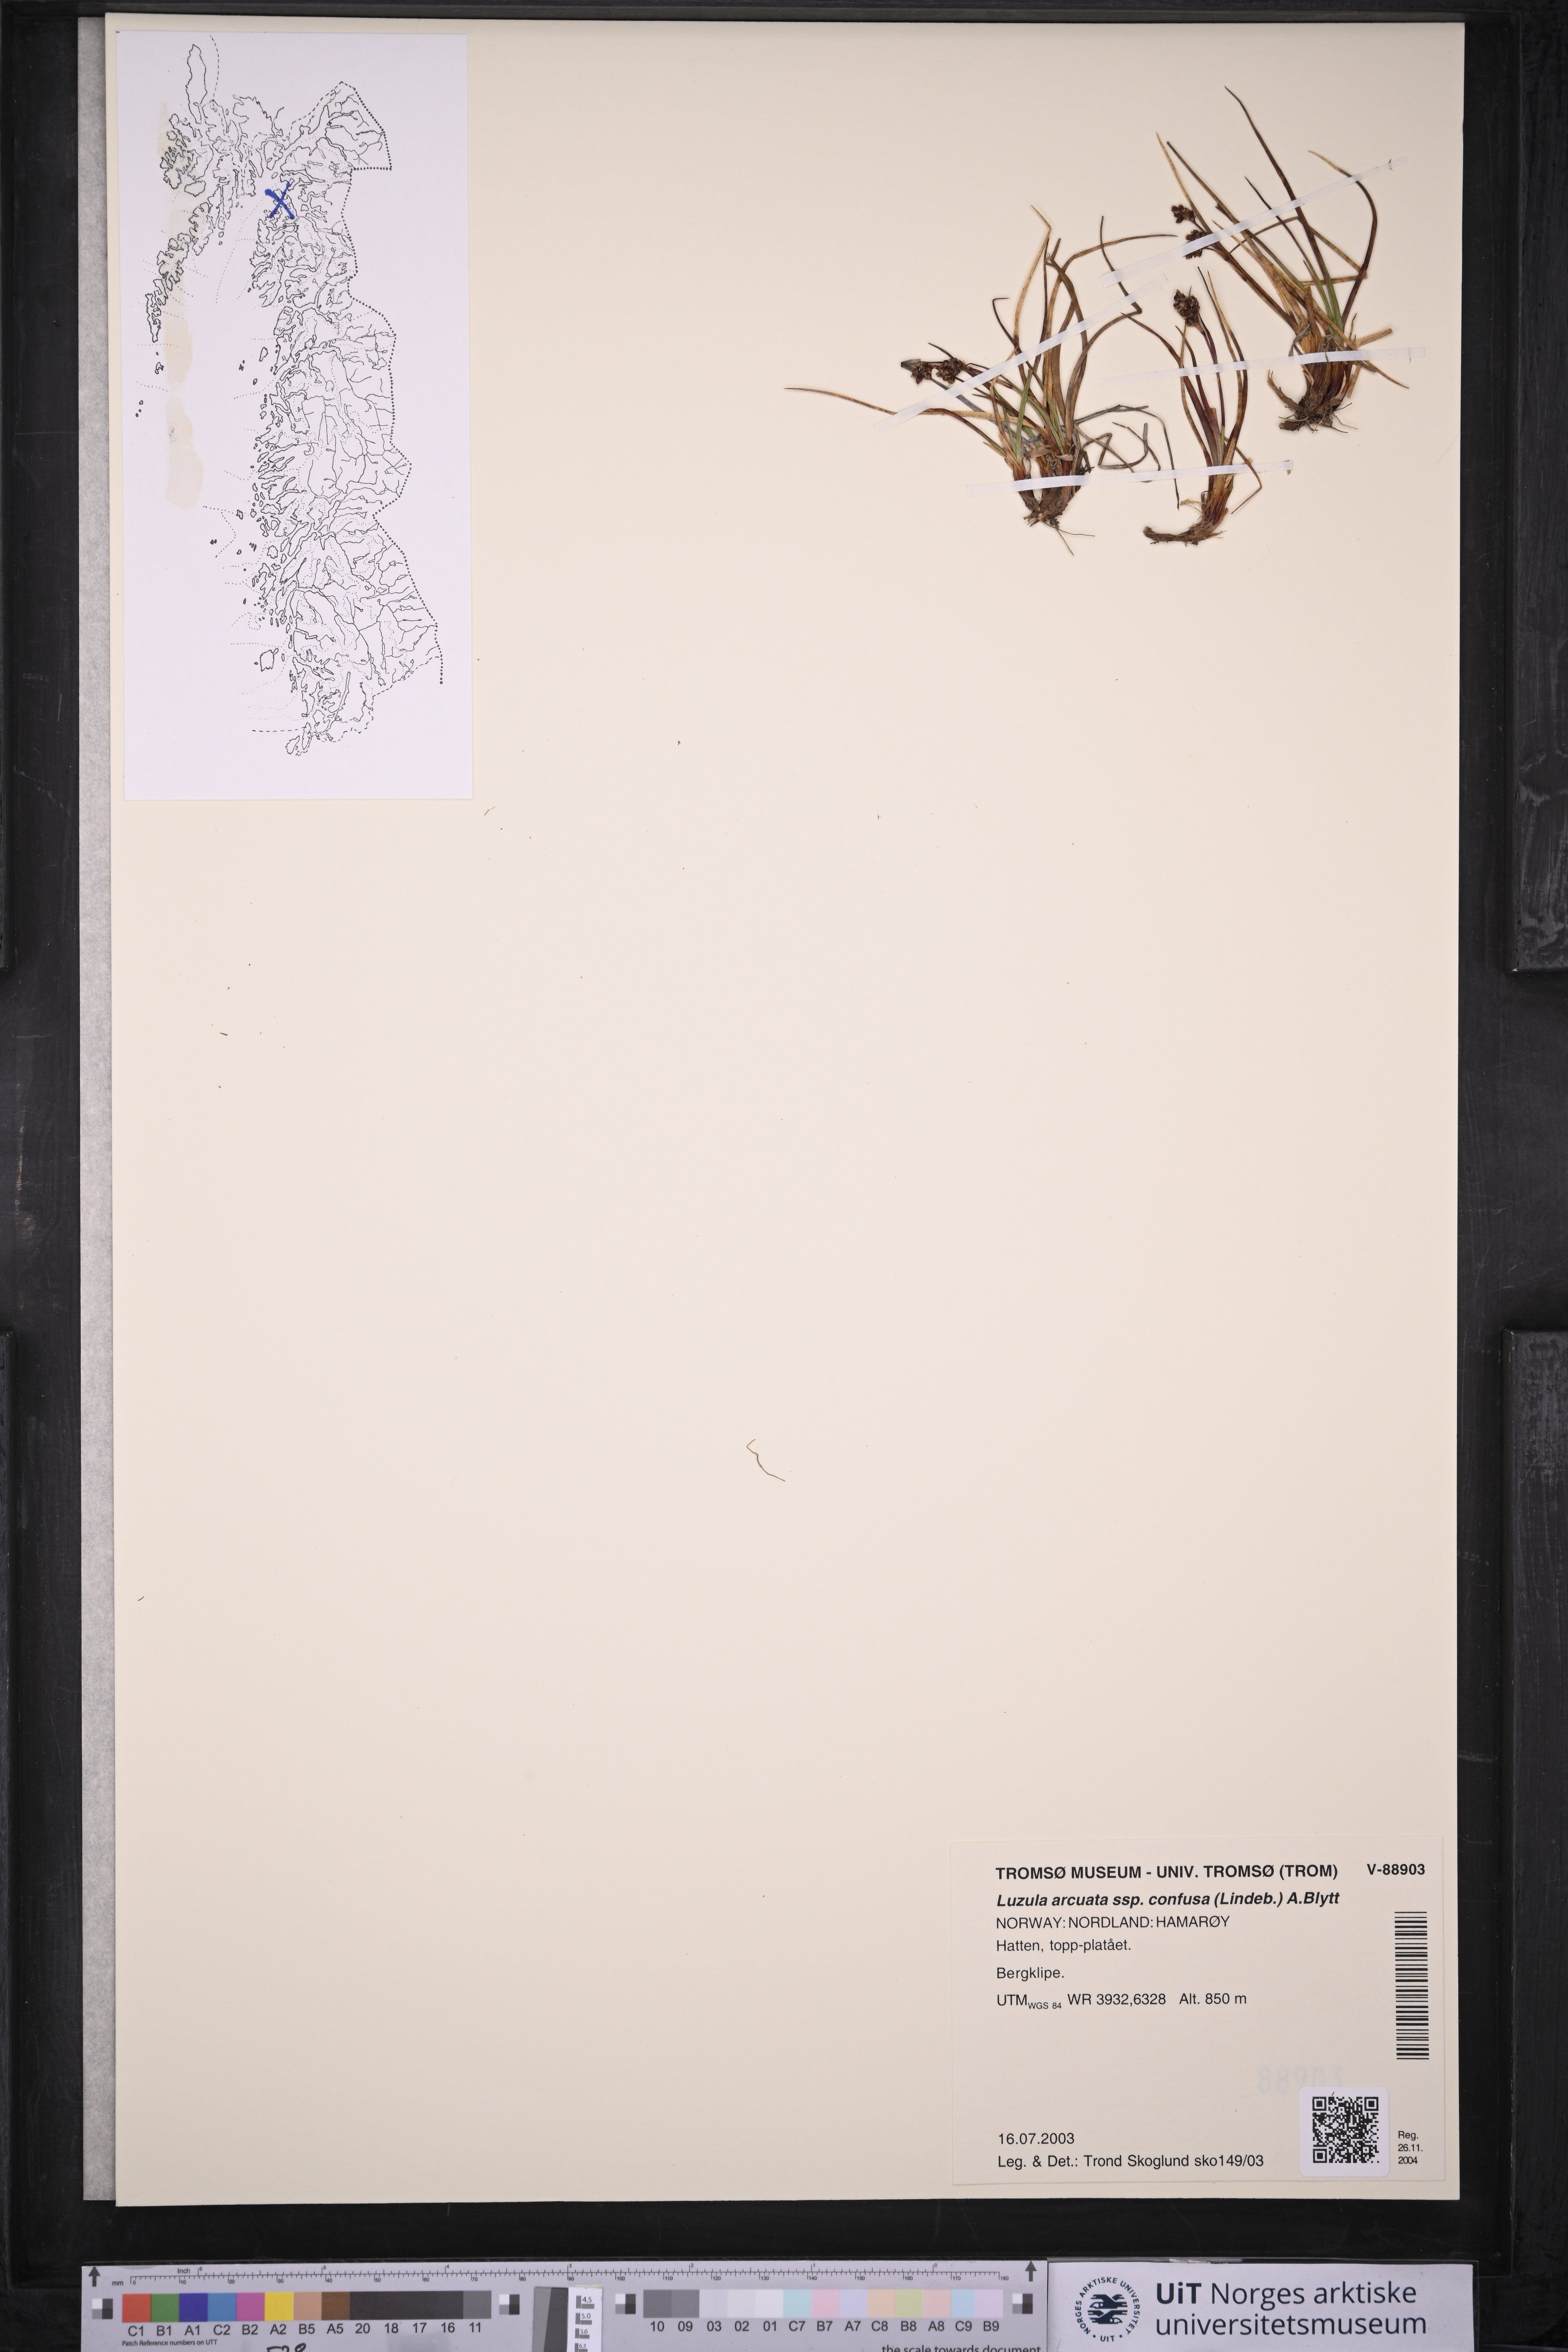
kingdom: Plantae
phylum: Tracheophyta
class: Liliopsida
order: Poales
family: Juncaceae
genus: Luzula
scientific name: Luzula confusa
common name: Northern wood rush
